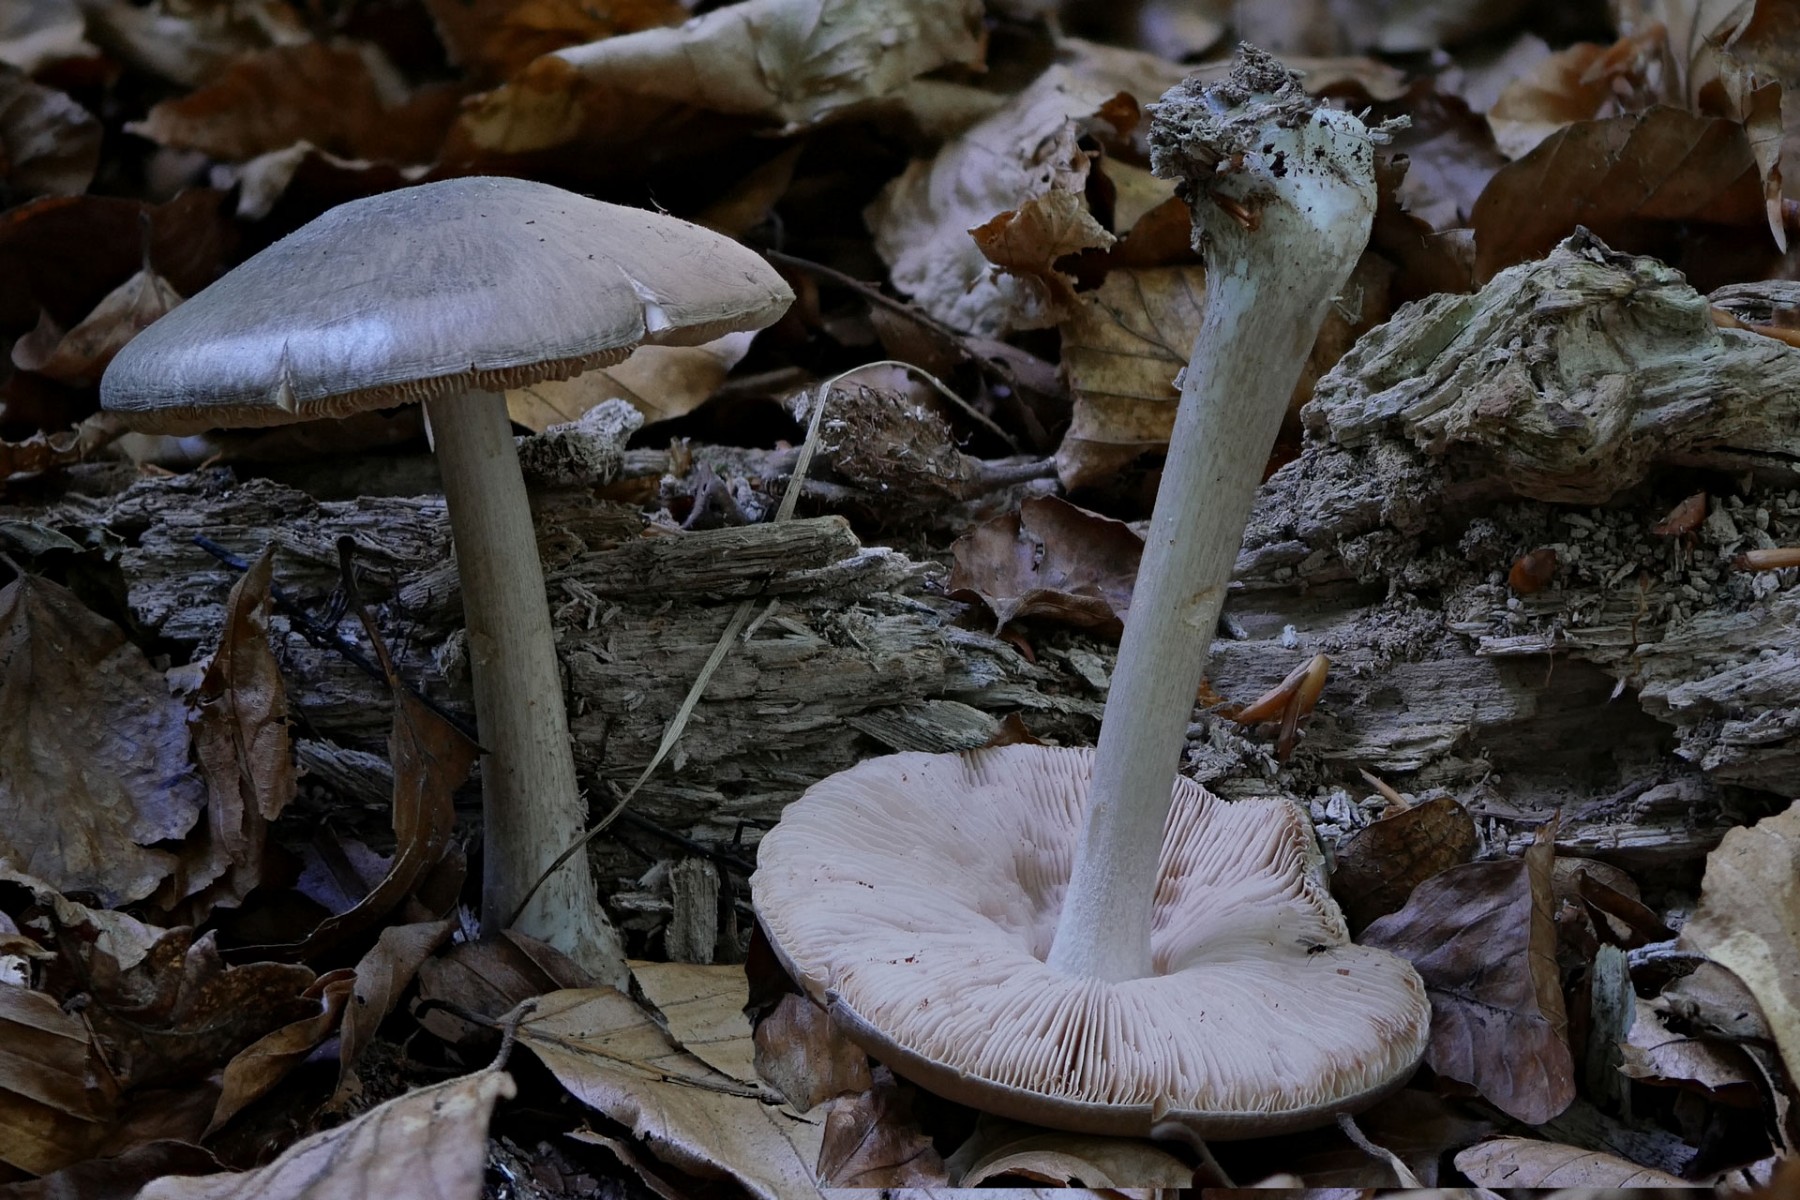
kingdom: Fungi
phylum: Basidiomycota
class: Agaricomycetes
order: Agaricales
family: Pluteaceae
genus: Pluteus
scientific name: Pluteus salicinus
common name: stiv skærmhat
